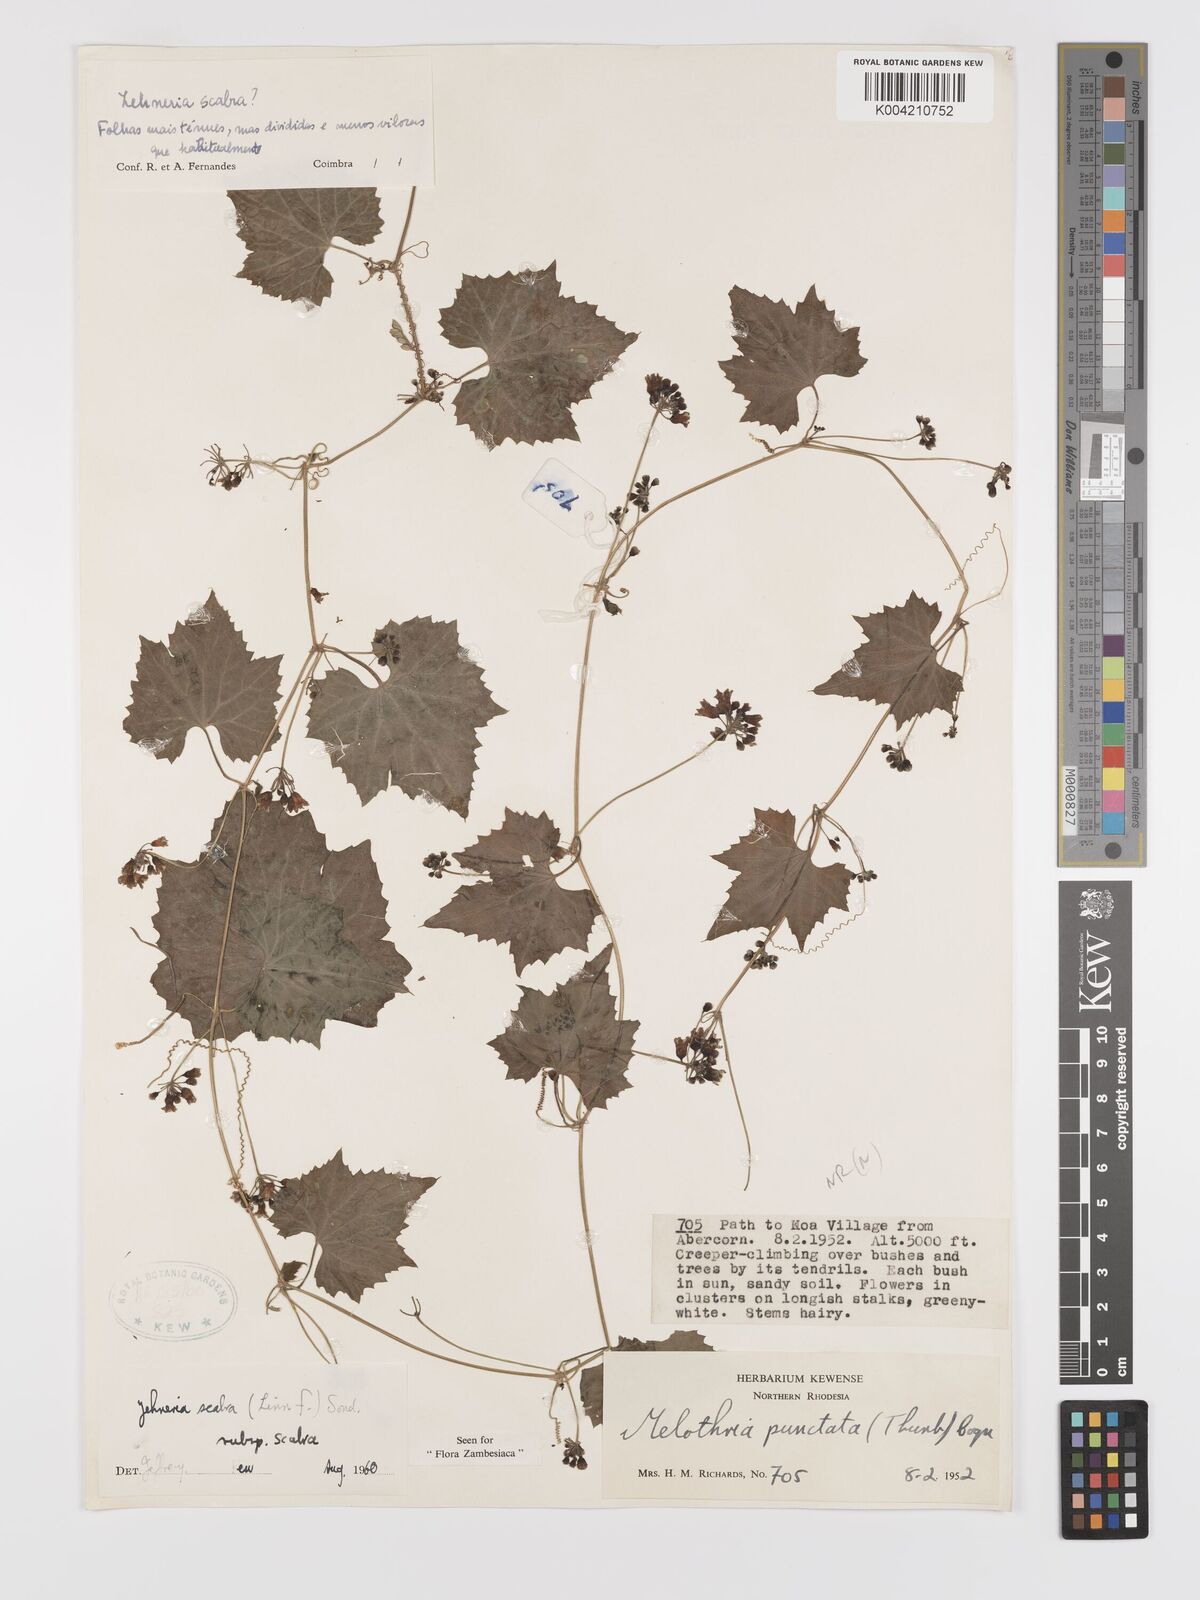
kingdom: Plantae
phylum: Tracheophyta
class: Magnoliopsida
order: Cucurbitales
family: Cucurbitaceae
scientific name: Cucurbitaceae
